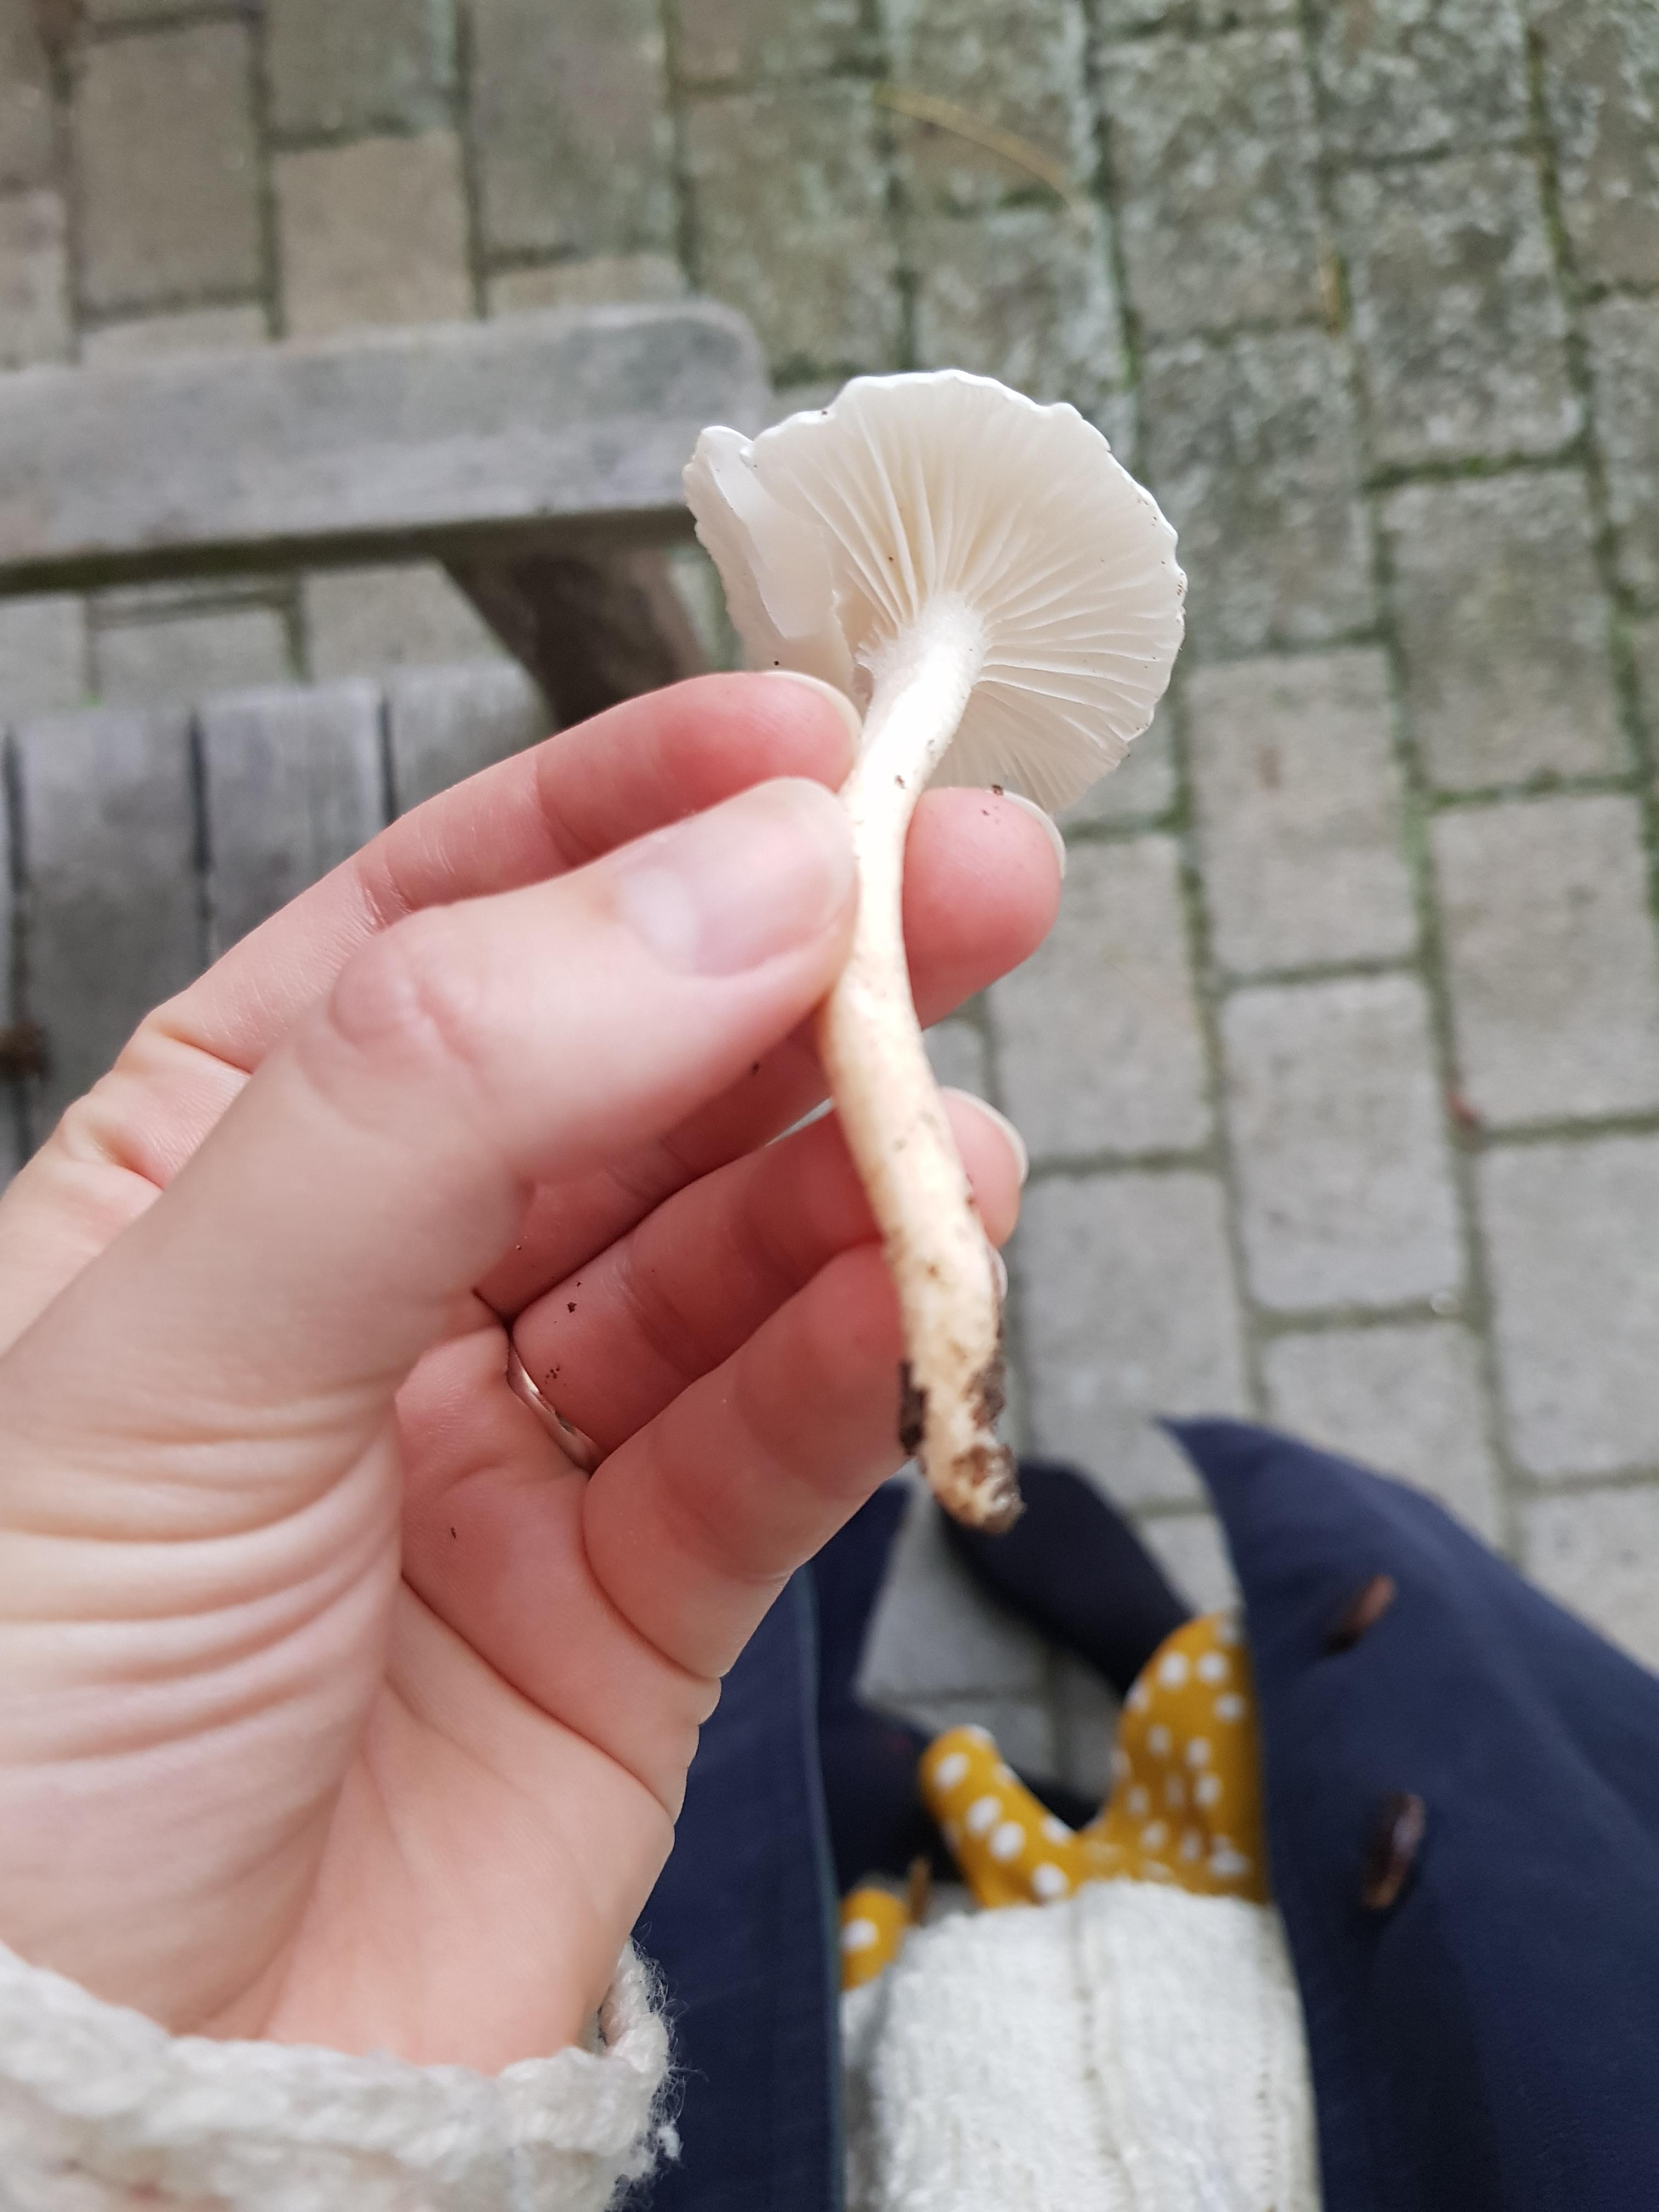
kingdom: Fungi
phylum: Basidiomycota
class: Agaricomycetes
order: Agaricales
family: Hygrophoraceae
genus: Hygrophorus
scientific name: Hygrophorus eburneus
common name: elfenbens-sneglehat
